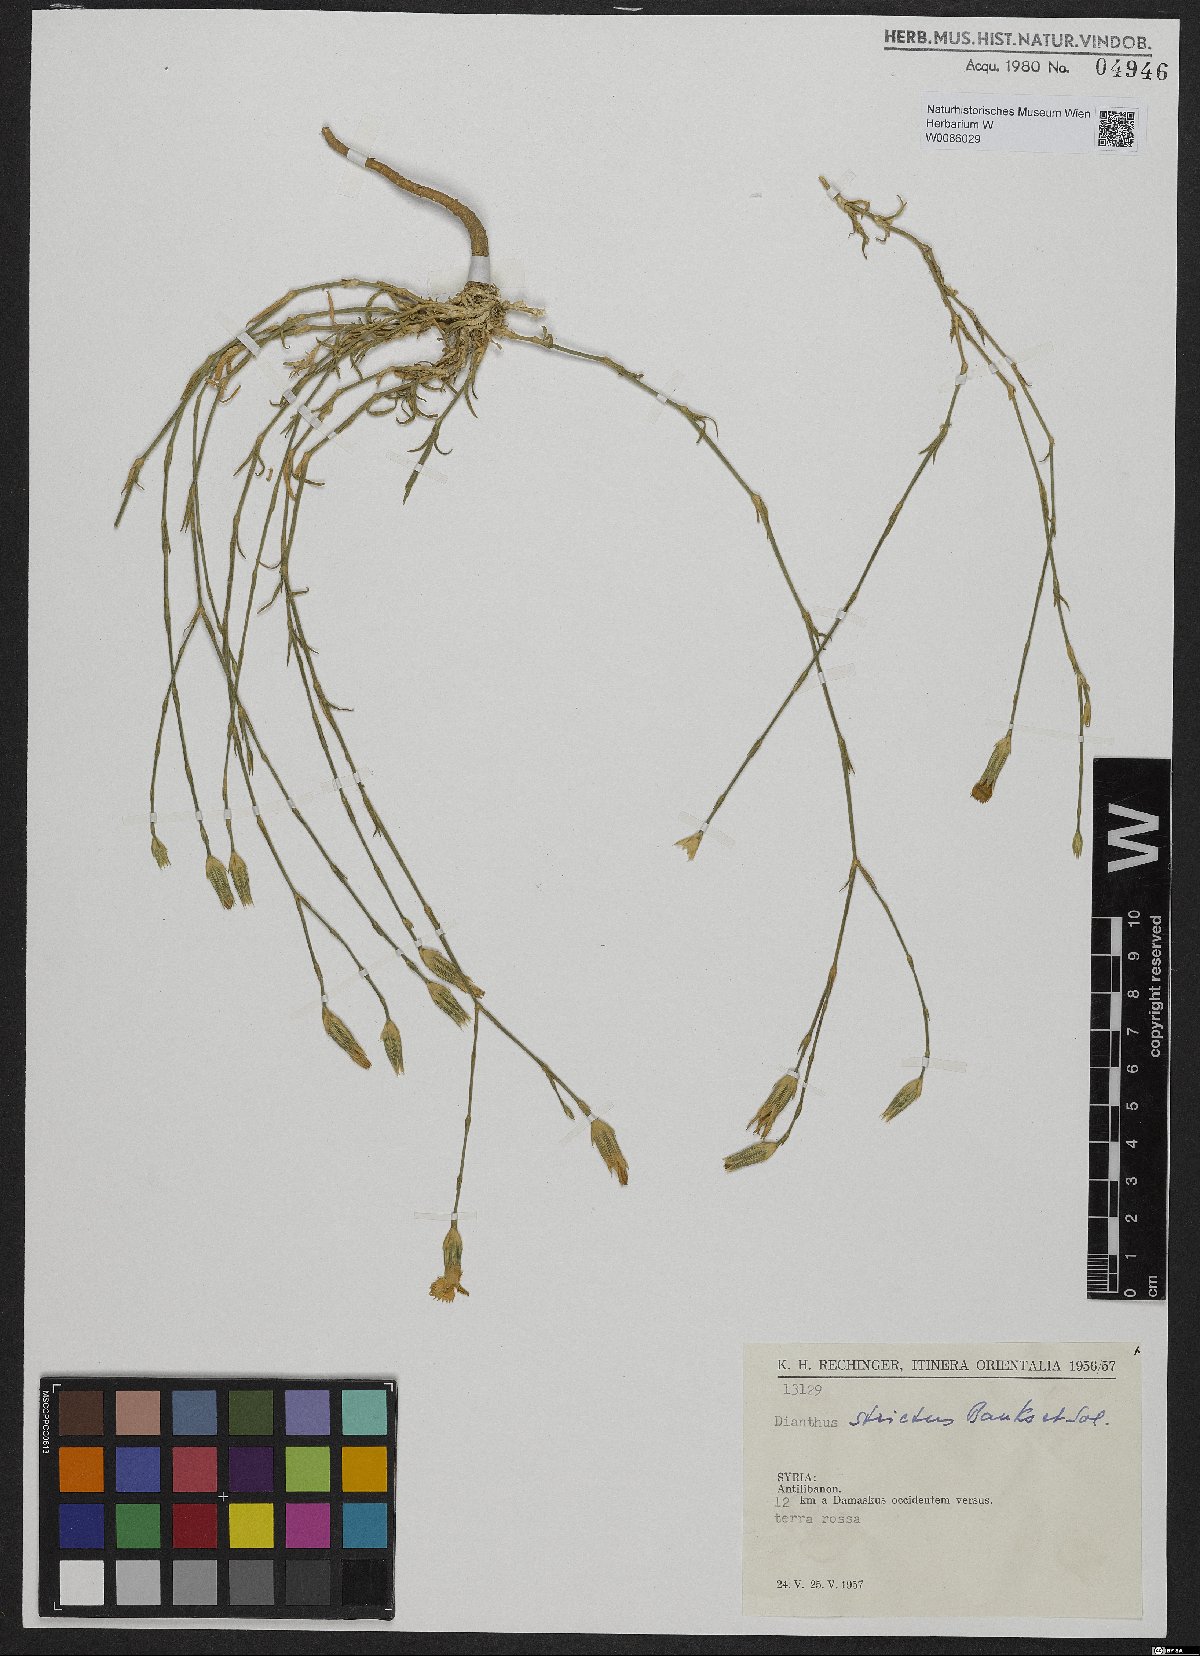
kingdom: Plantae
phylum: Tracheophyta
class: Magnoliopsida
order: Caryophyllales
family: Caryophyllaceae
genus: Dianthus
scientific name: Dianthus strictus
